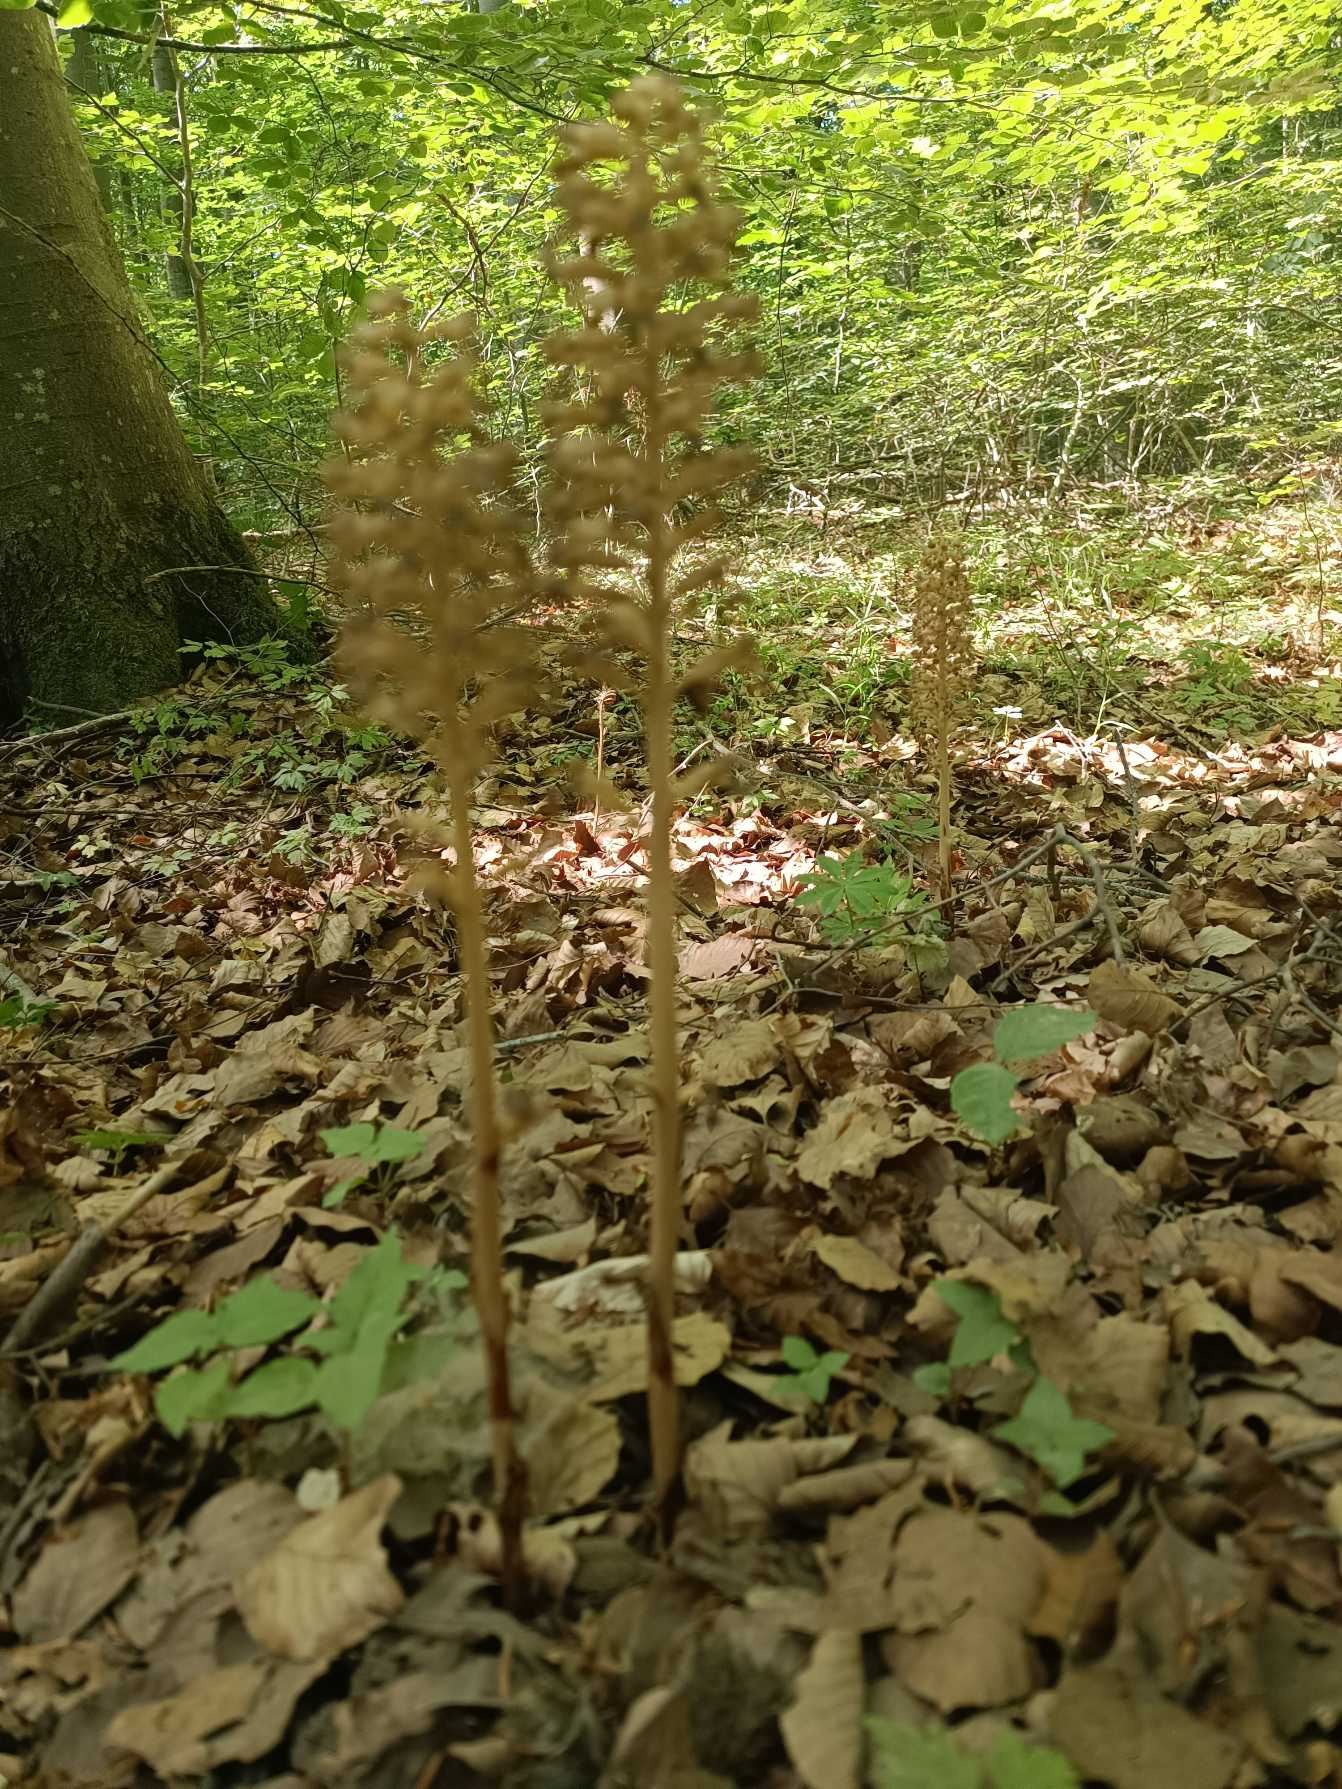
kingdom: Plantae
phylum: Tracheophyta
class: Liliopsida
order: Asparagales
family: Orchidaceae
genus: Neottia
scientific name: Neottia nidus-avis
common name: Rederod
